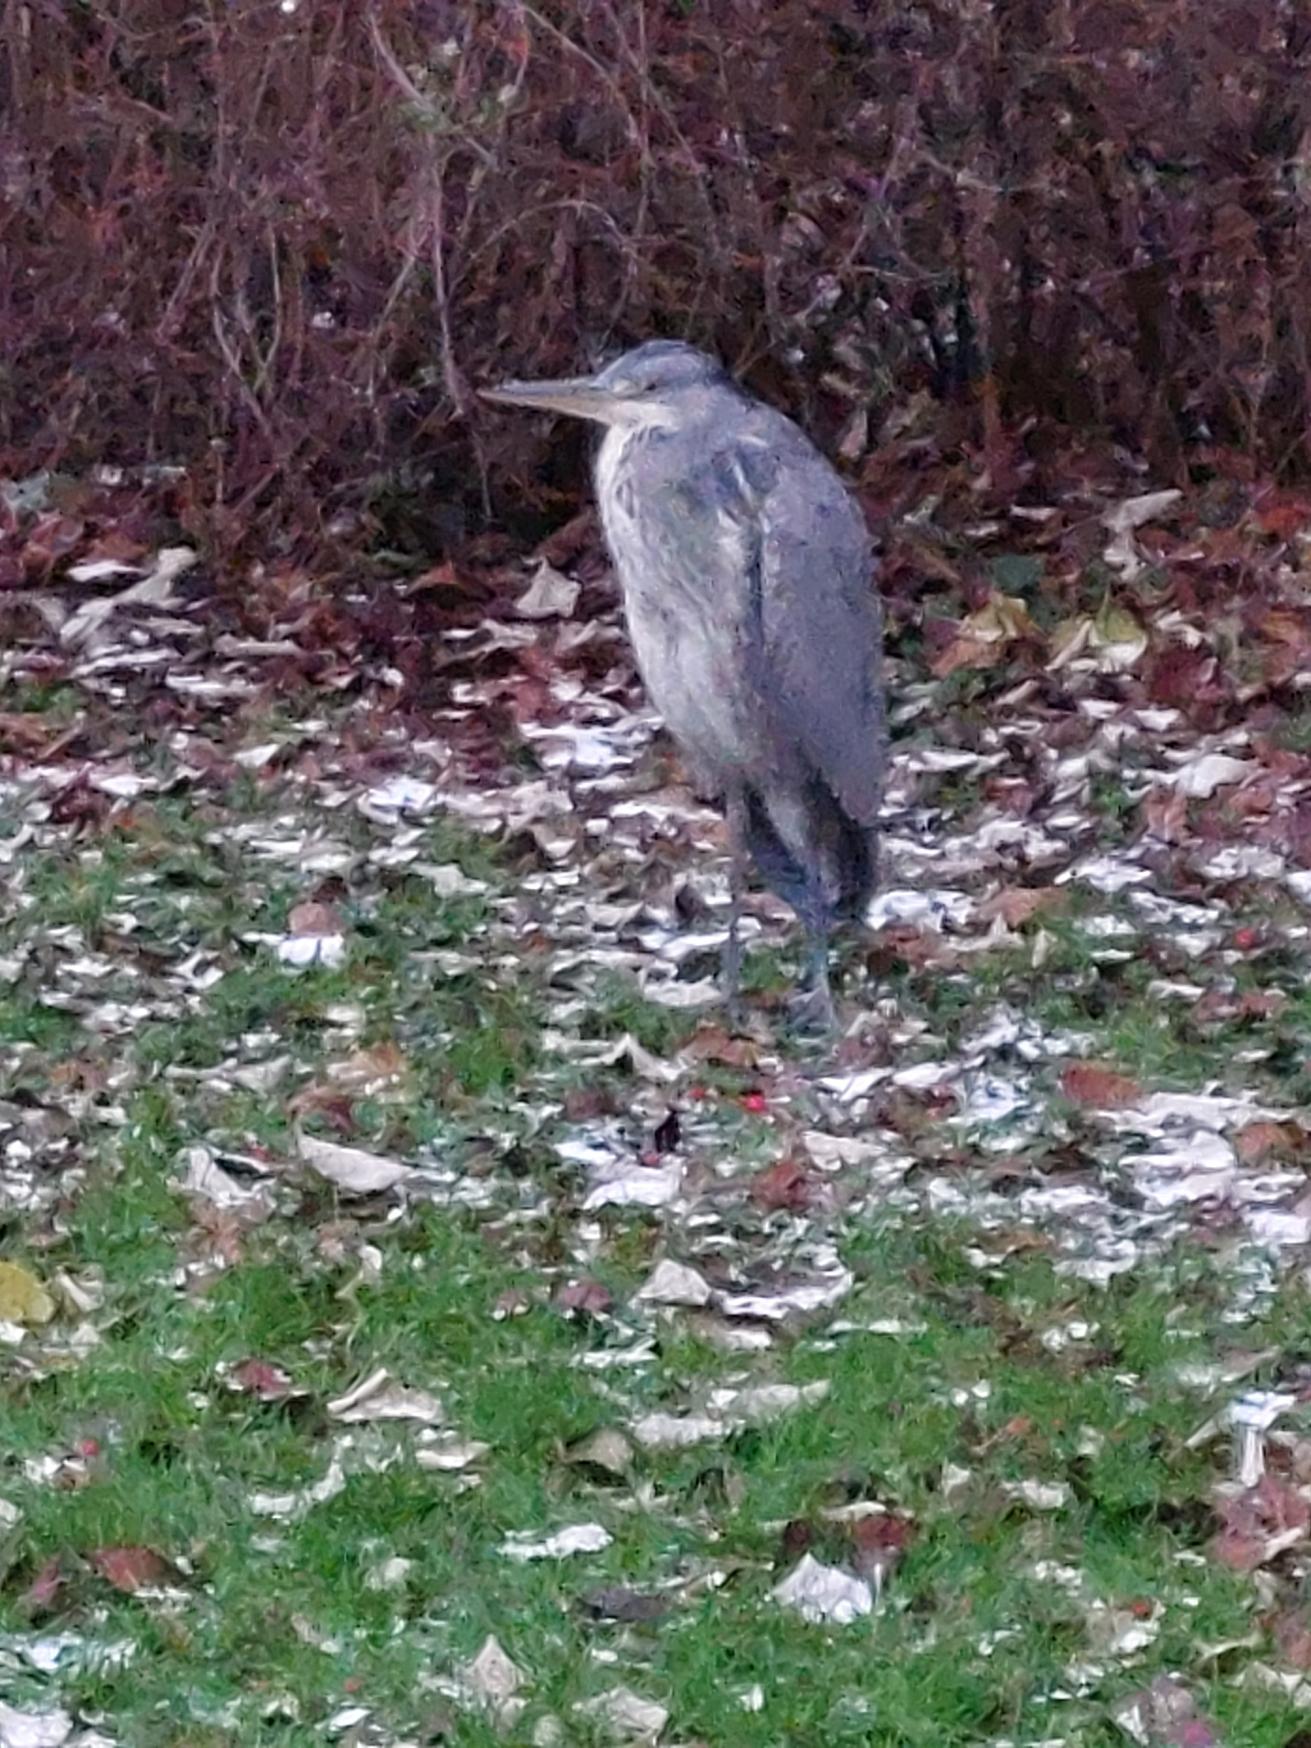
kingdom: Animalia
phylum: Chordata
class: Aves
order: Pelecaniformes
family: Ardeidae
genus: Ardea
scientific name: Ardea cinerea
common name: Fiskehejre
